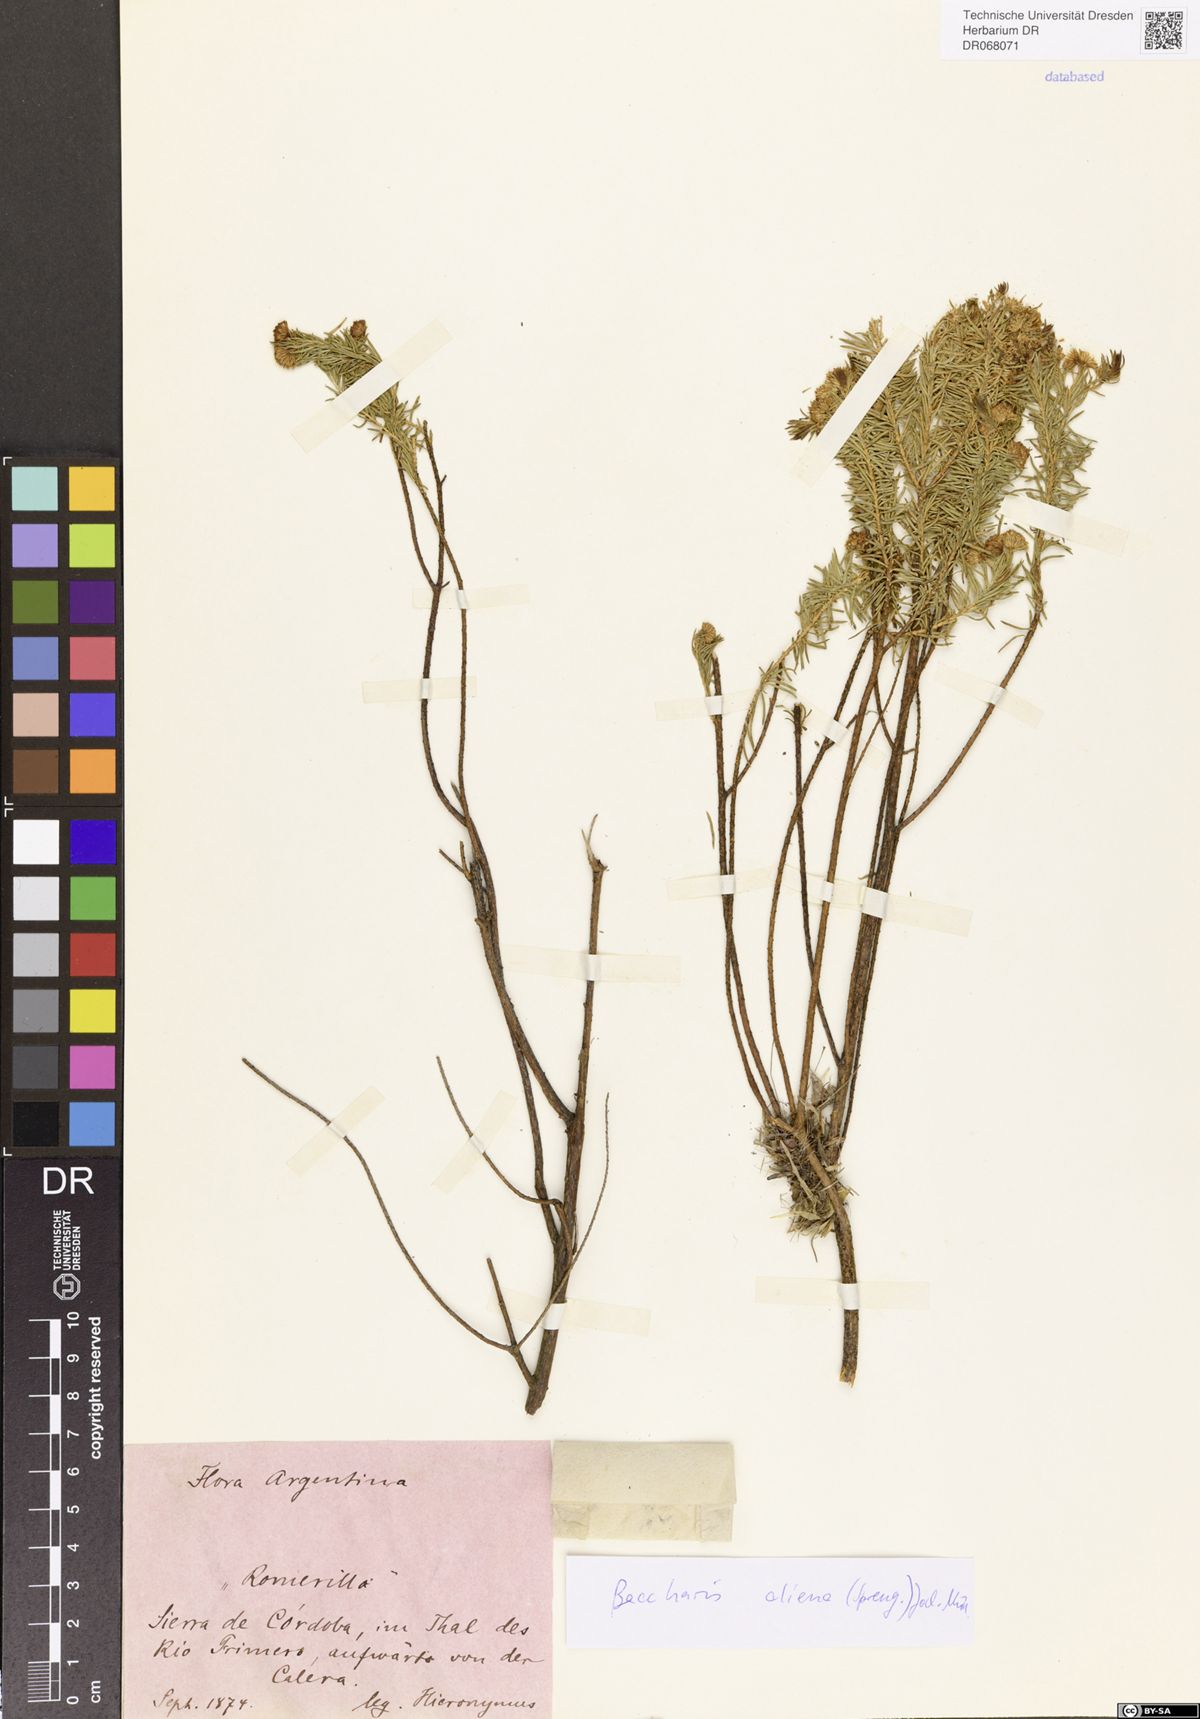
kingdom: Plantae
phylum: Tracheophyta
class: Magnoliopsida
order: Asterales
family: Asteraceae
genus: Baccharis
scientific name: Baccharis aliena
